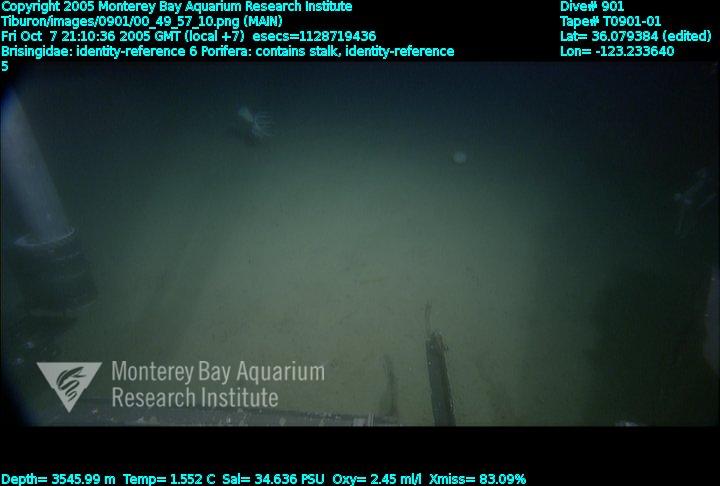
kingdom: Animalia
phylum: Porifera
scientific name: Porifera
